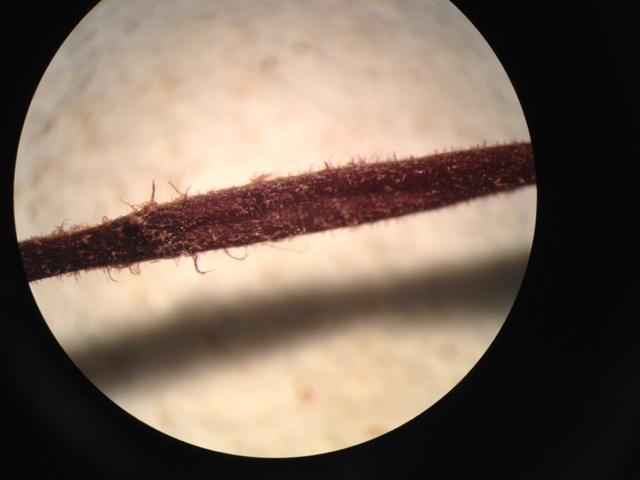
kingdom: Fungi
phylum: Basidiomycota
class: Agaricomycetes
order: Agaricales
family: Omphalotaceae
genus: Paragymnopus
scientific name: Paragymnopus perforans
